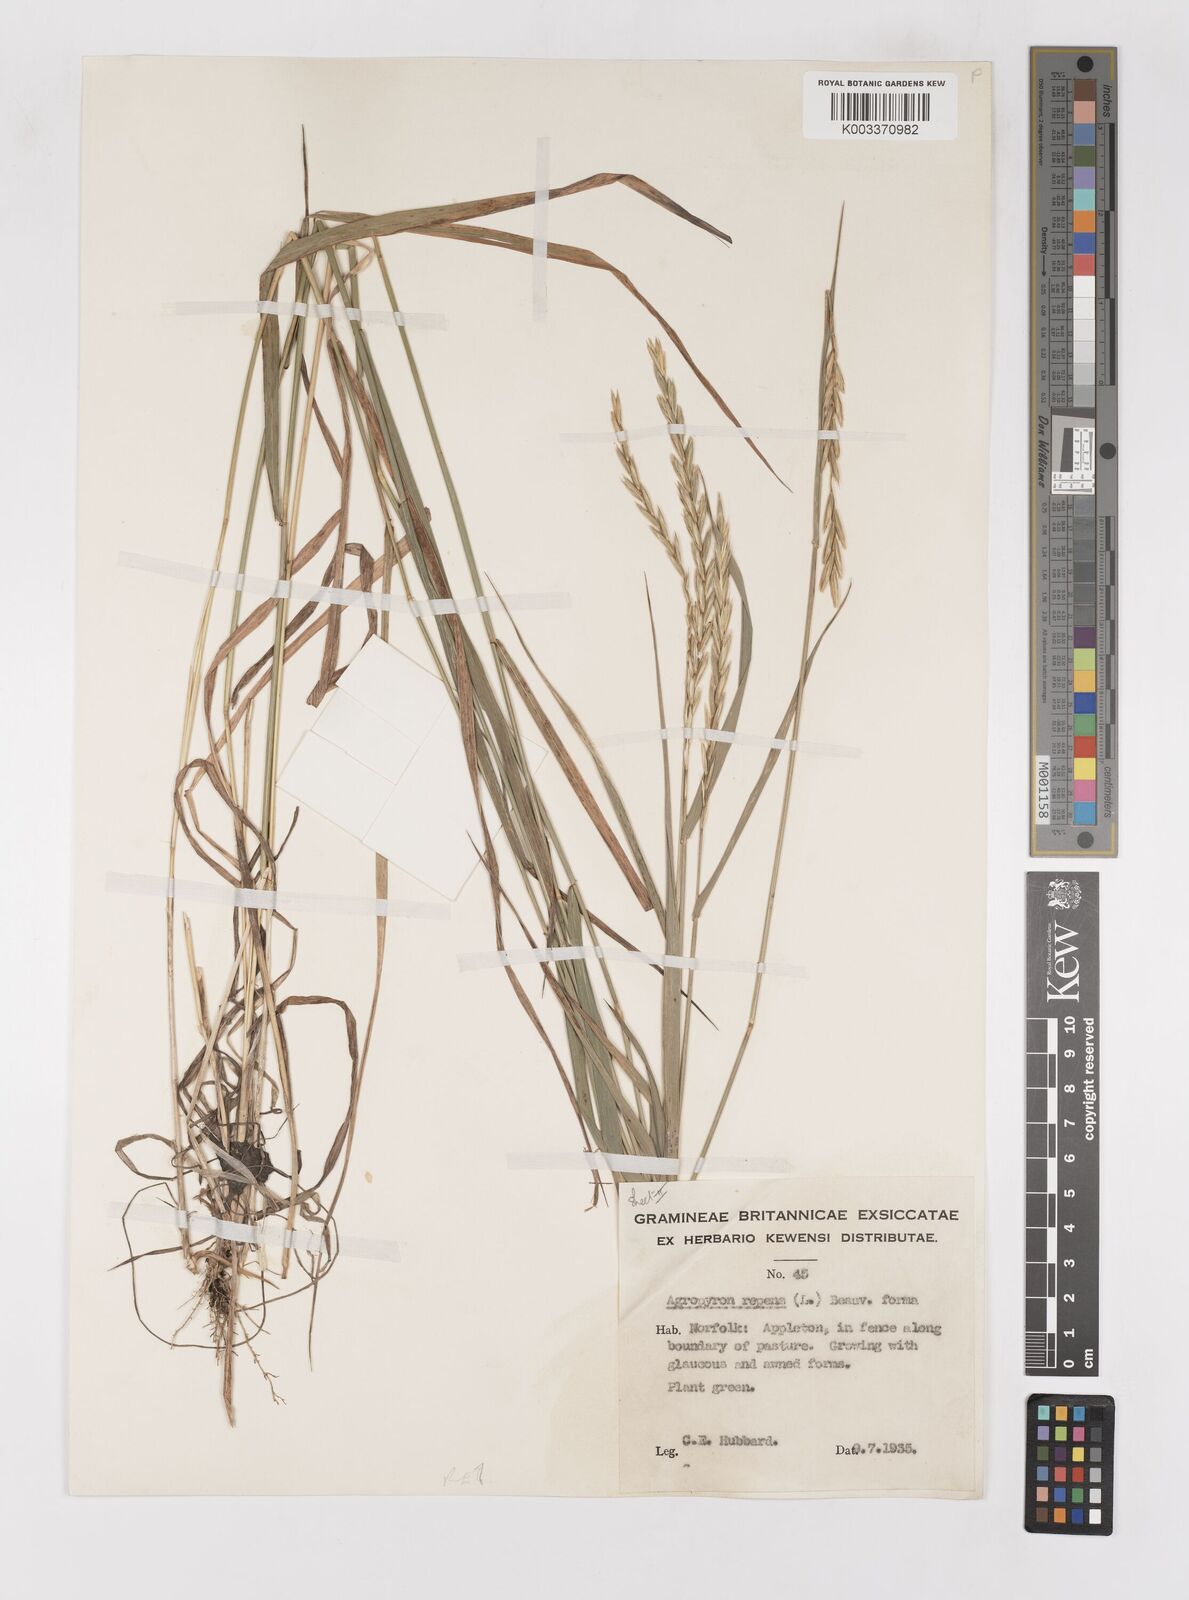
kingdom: Plantae
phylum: Tracheophyta
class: Liliopsida
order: Poales
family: Poaceae
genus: Elymus
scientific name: Elymus repens
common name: Quackgrass
